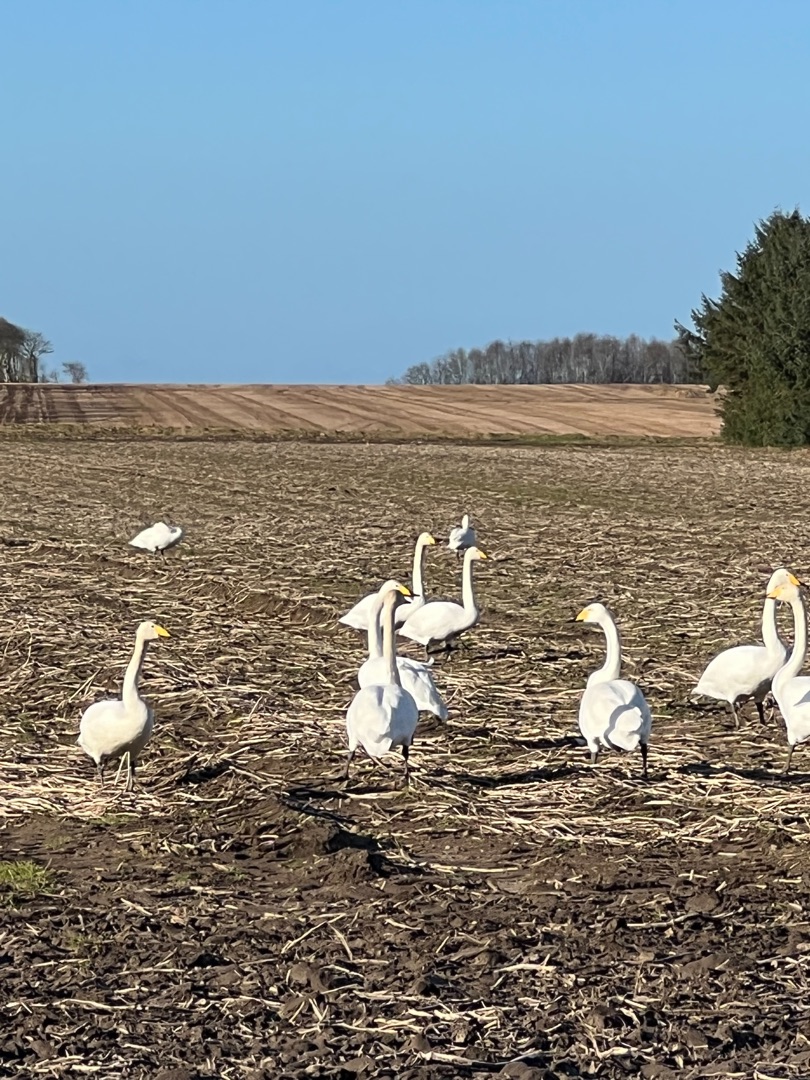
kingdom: Animalia
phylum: Chordata
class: Aves
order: Anseriformes
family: Anatidae
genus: Cygnus
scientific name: Cygnus cygnus
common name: Sangsvane
